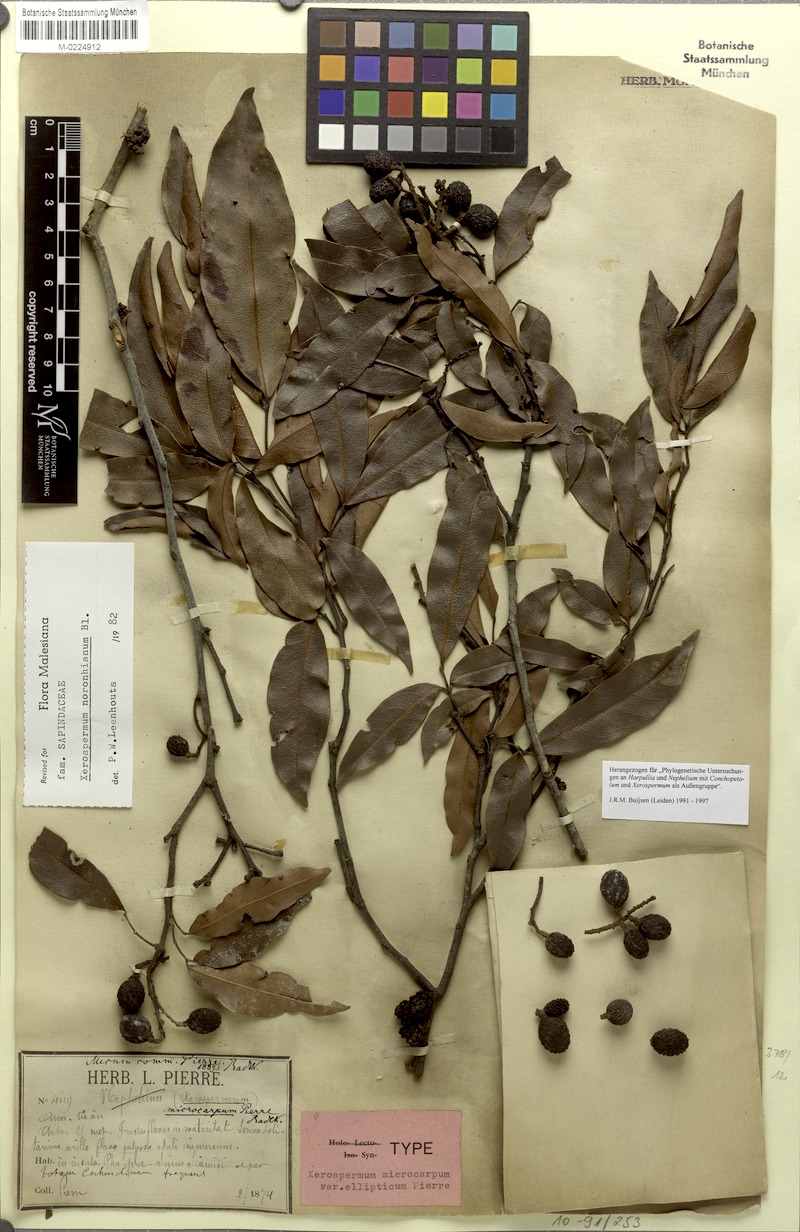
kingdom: Plantae
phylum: Tracheophyta
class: Magnoliopsida
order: Sapindales
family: Sapindaceae
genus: Xerospermum
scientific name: Xerospermum noronhianum
